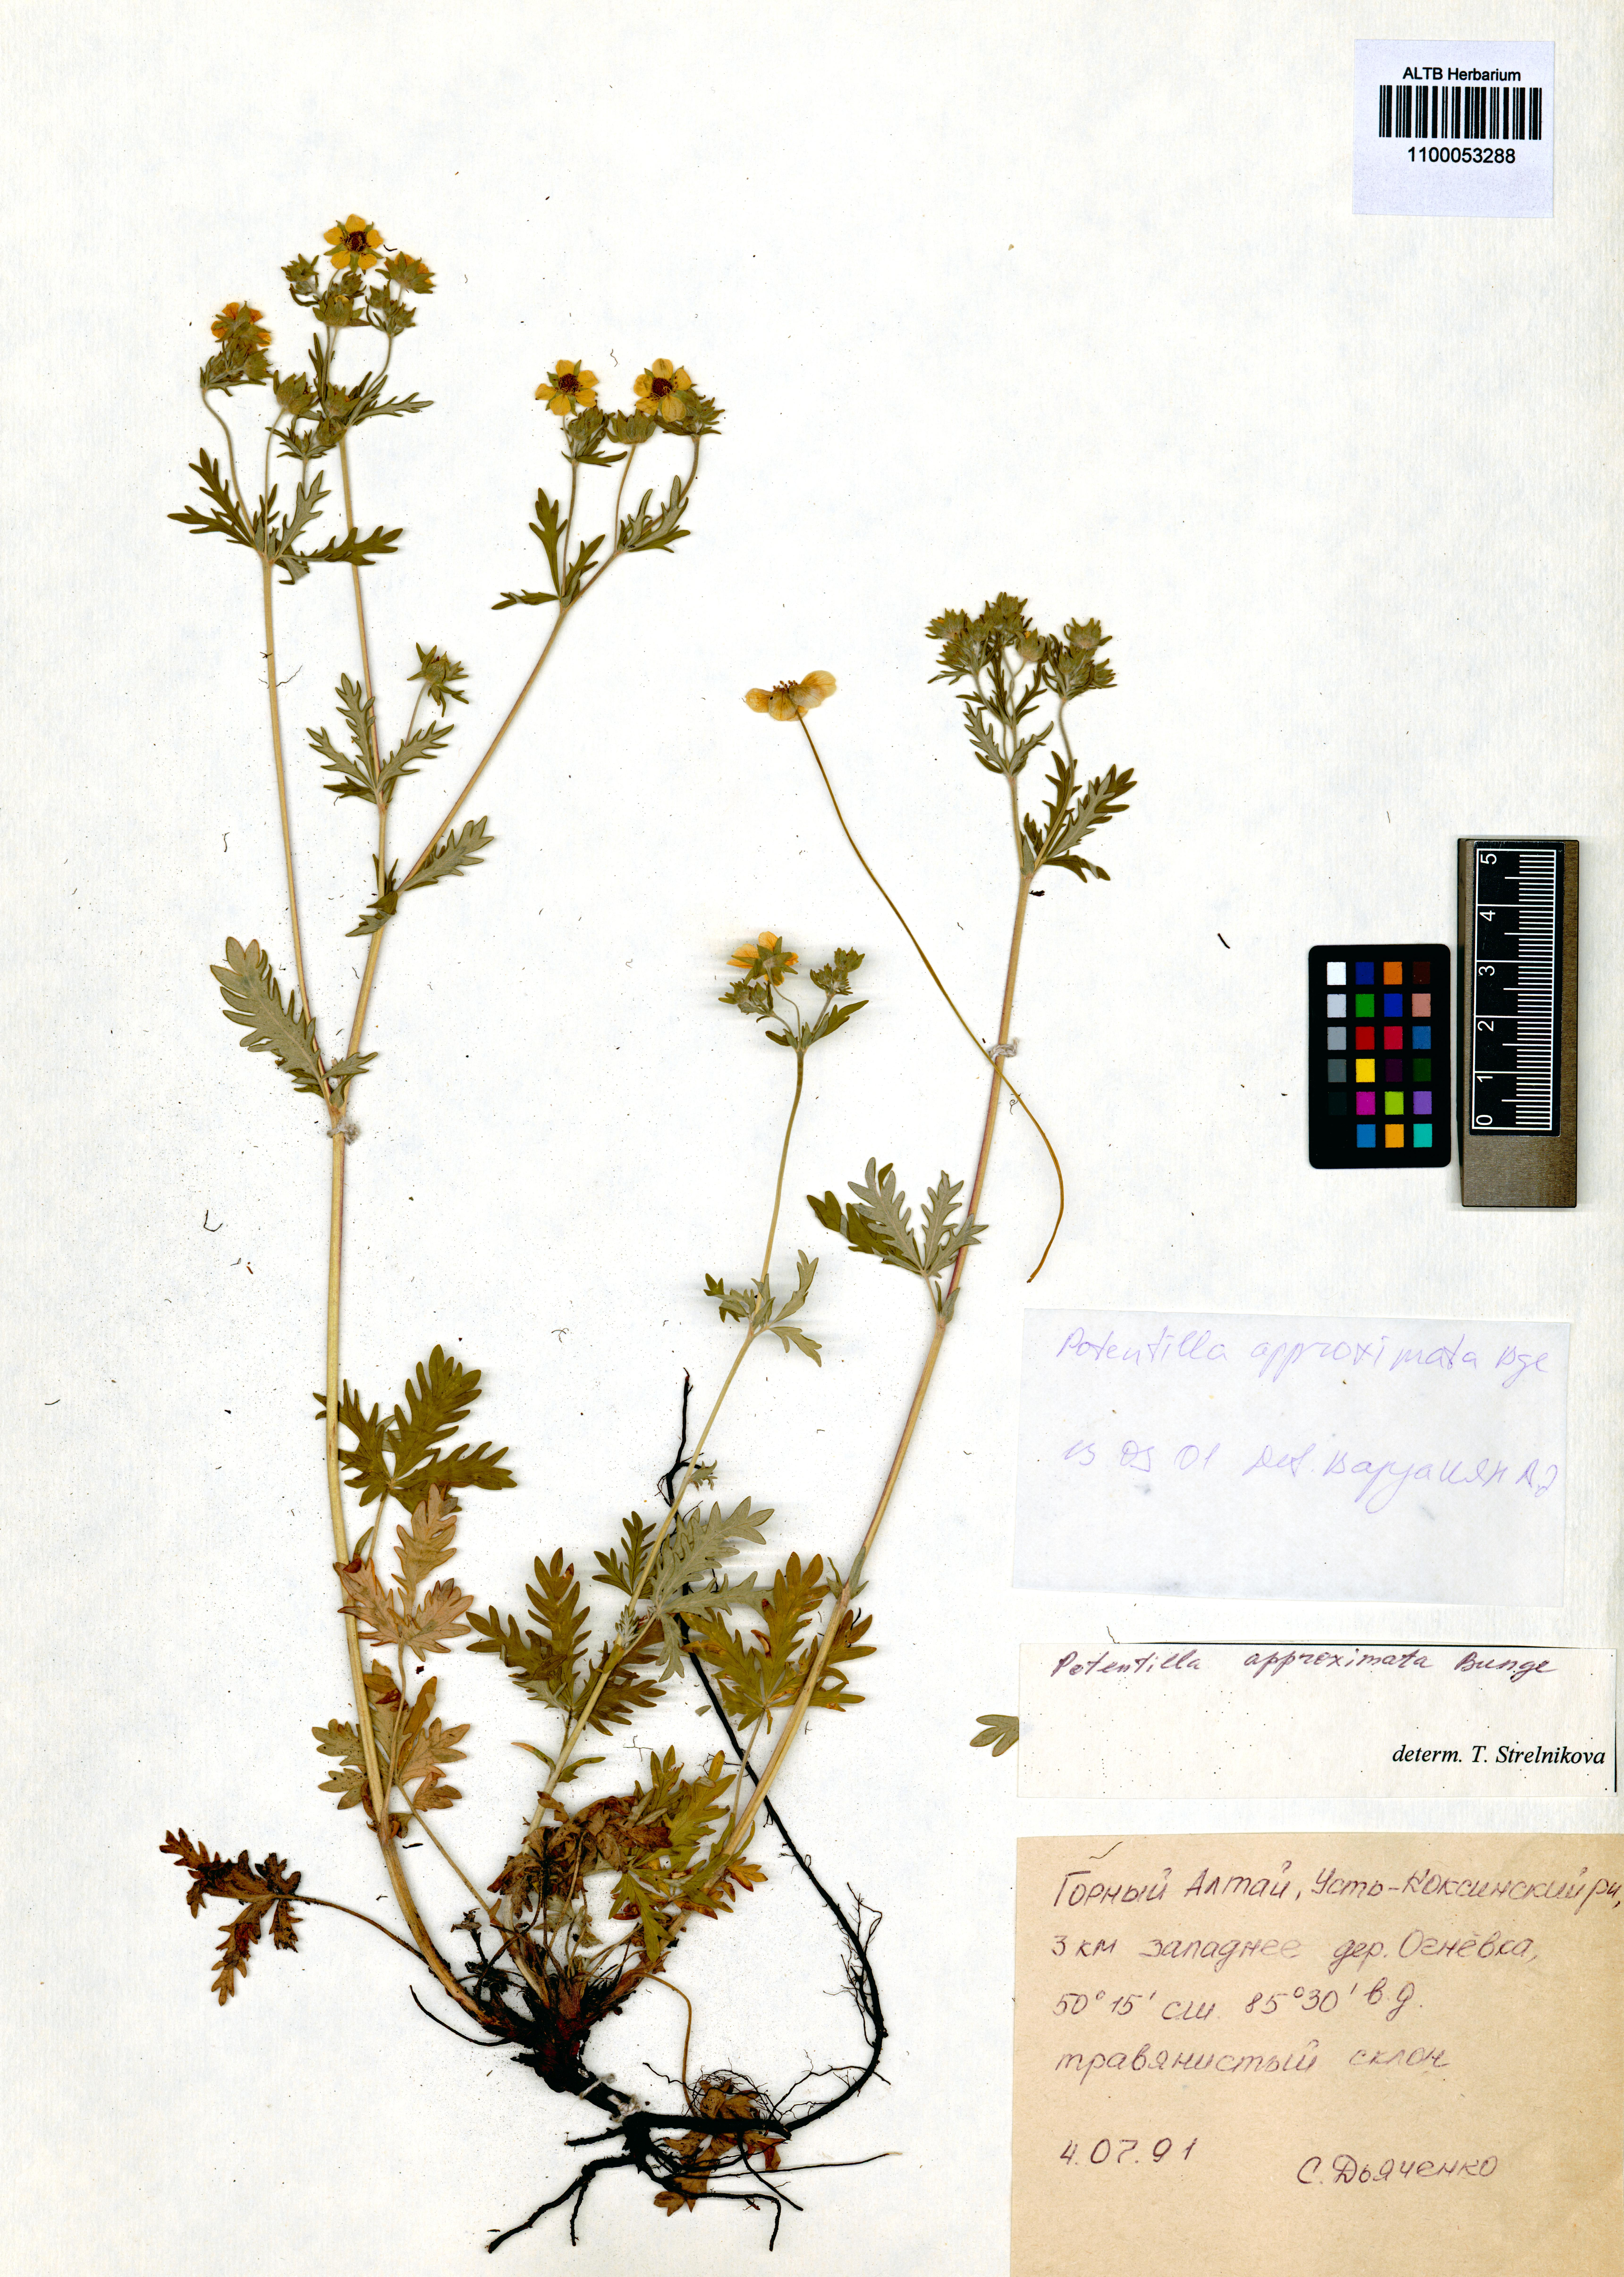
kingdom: Plantae
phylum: Tracheophyta
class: Magnoliopsida
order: Rosales
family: Rosaceae
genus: Potentilla
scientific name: Potentilla conferta
